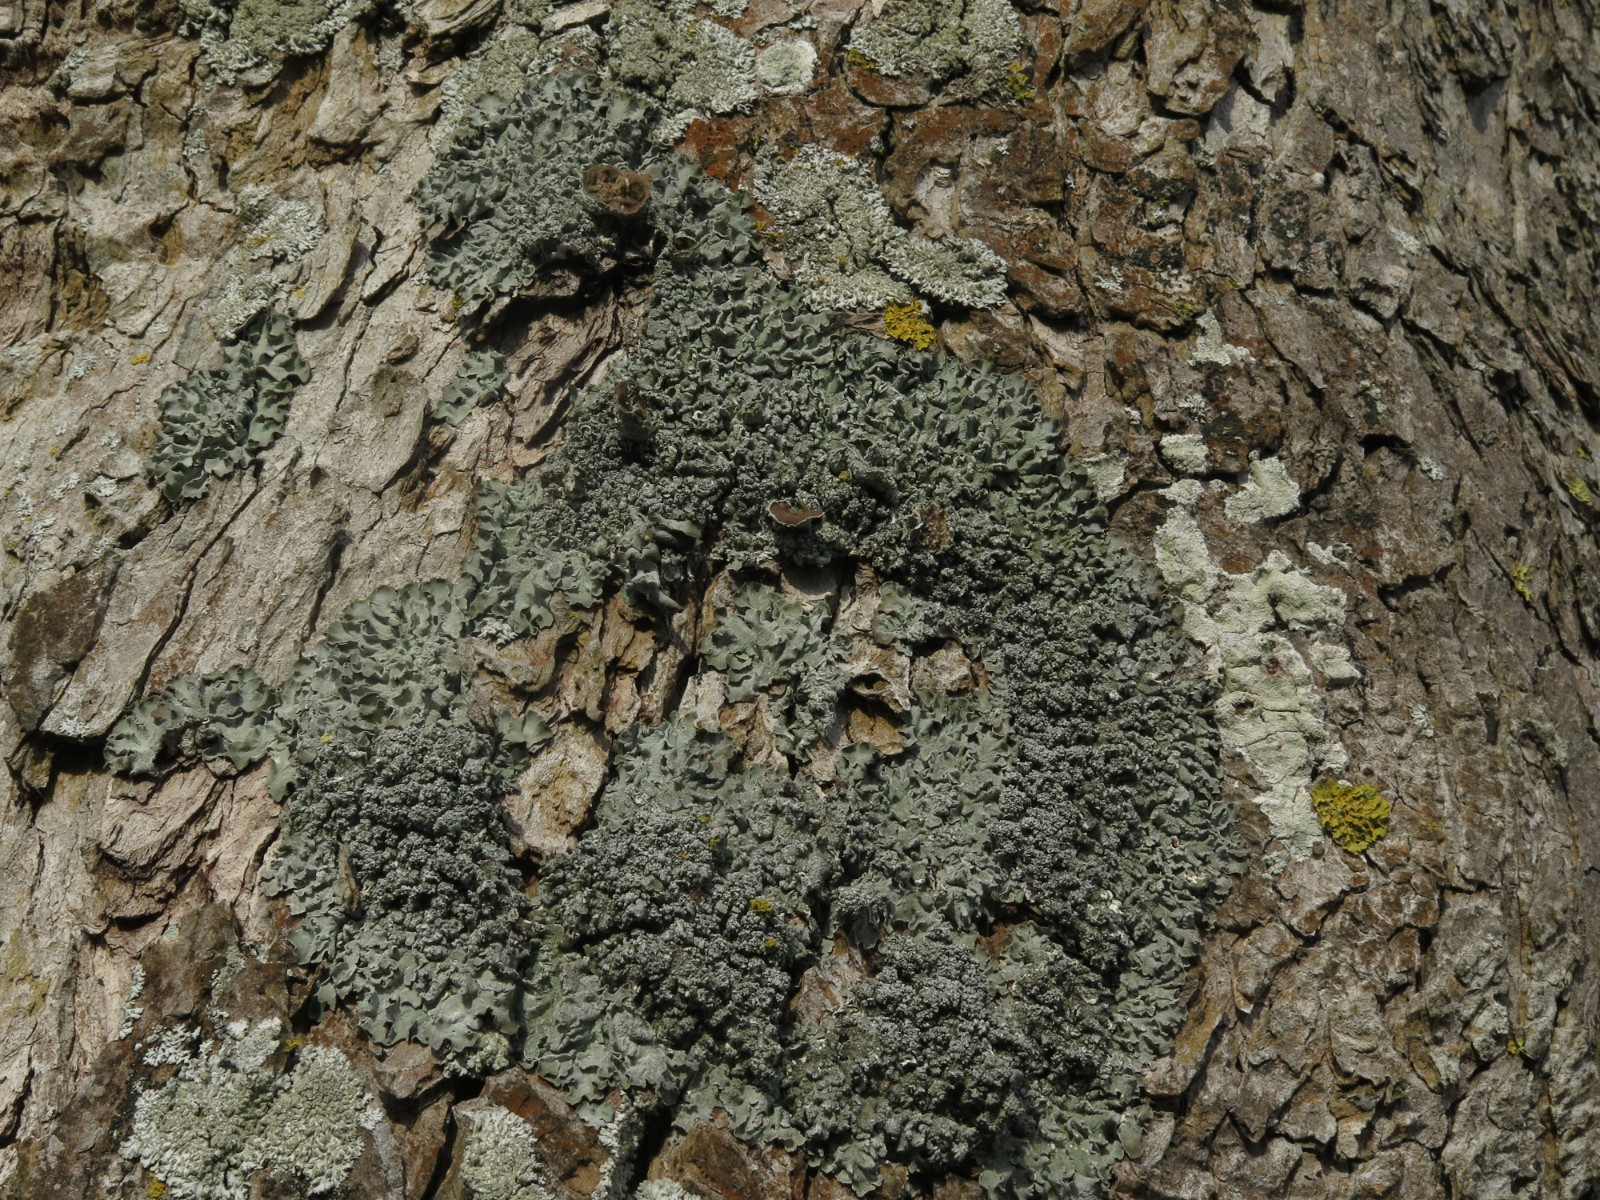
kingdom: Fungi
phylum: Ascomycota
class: Lecanoromycetes
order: Lecanorales
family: Parmeliaceae
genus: Pleurosticta
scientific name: Pleurosticta acetabulum
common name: stor skållav
